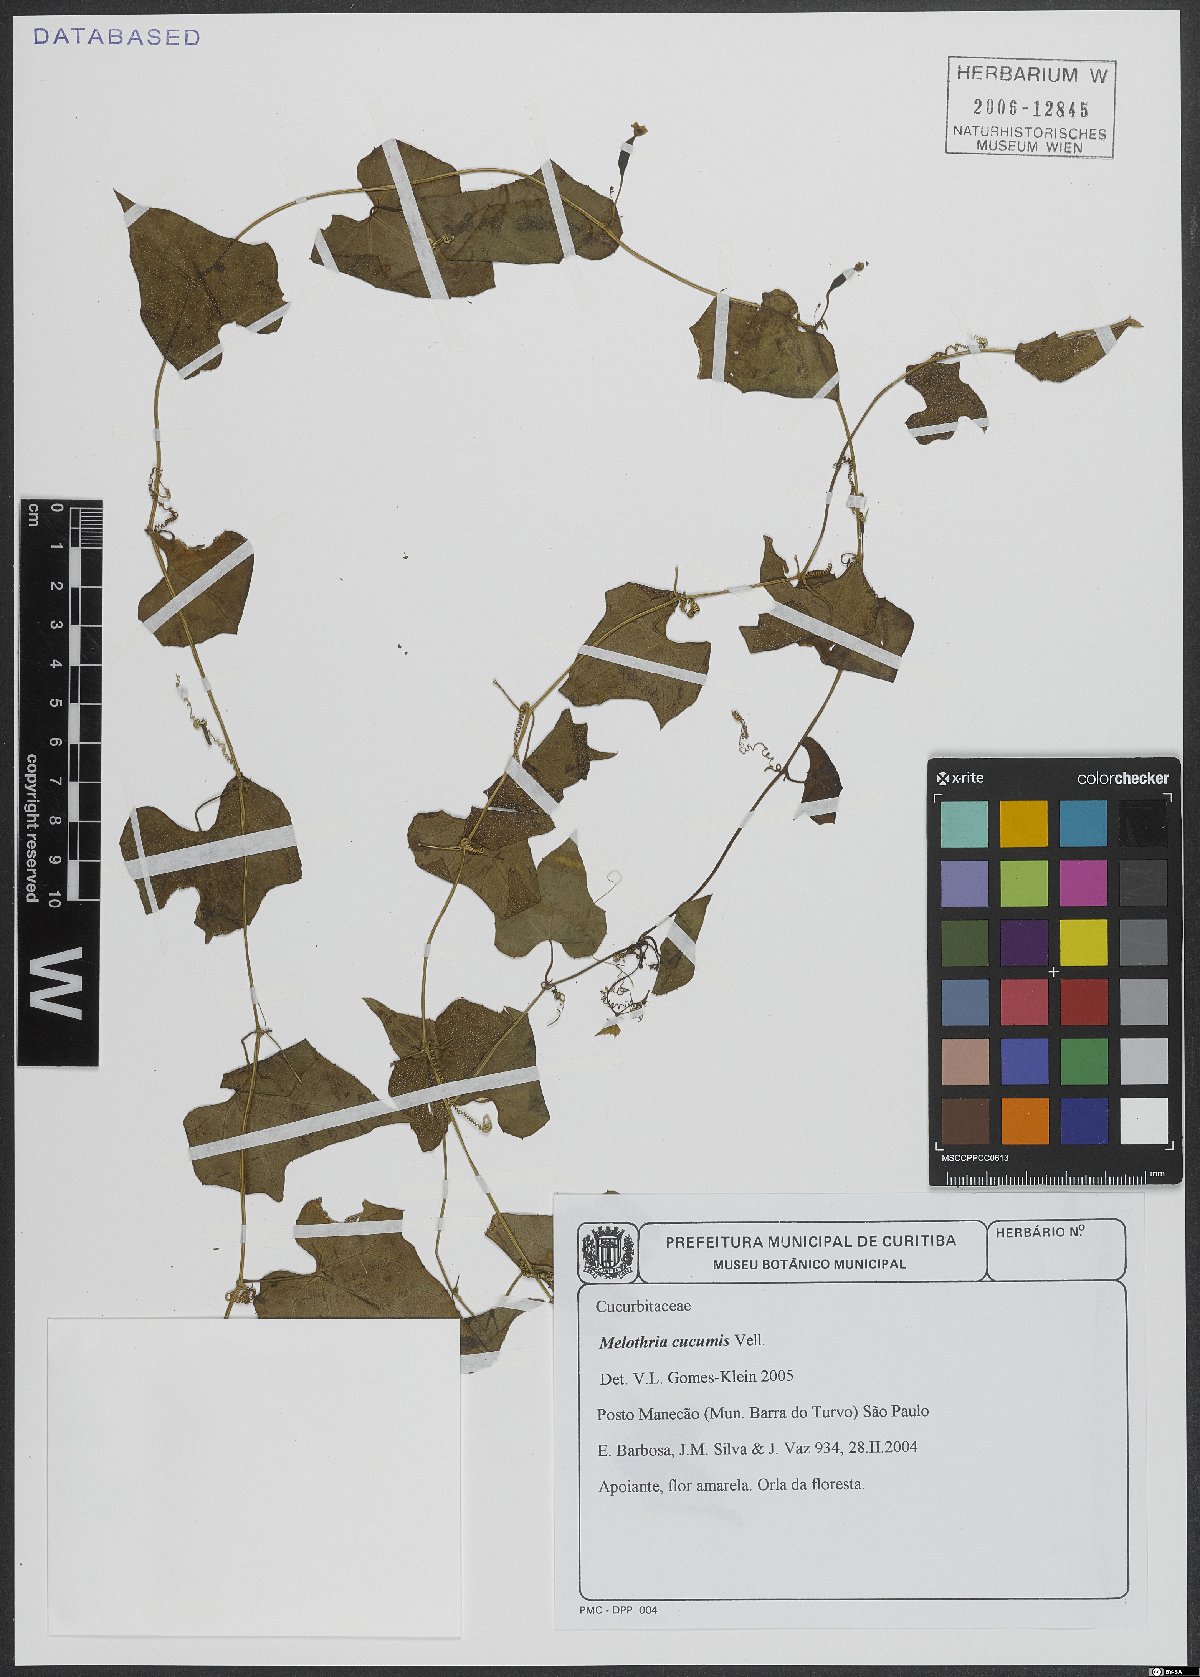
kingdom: Plantae
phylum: Tracheophyta
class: Magnoliopsida
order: Cucurbitales
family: Cucurbitaceae
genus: Melothria
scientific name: Melothria cucumis
